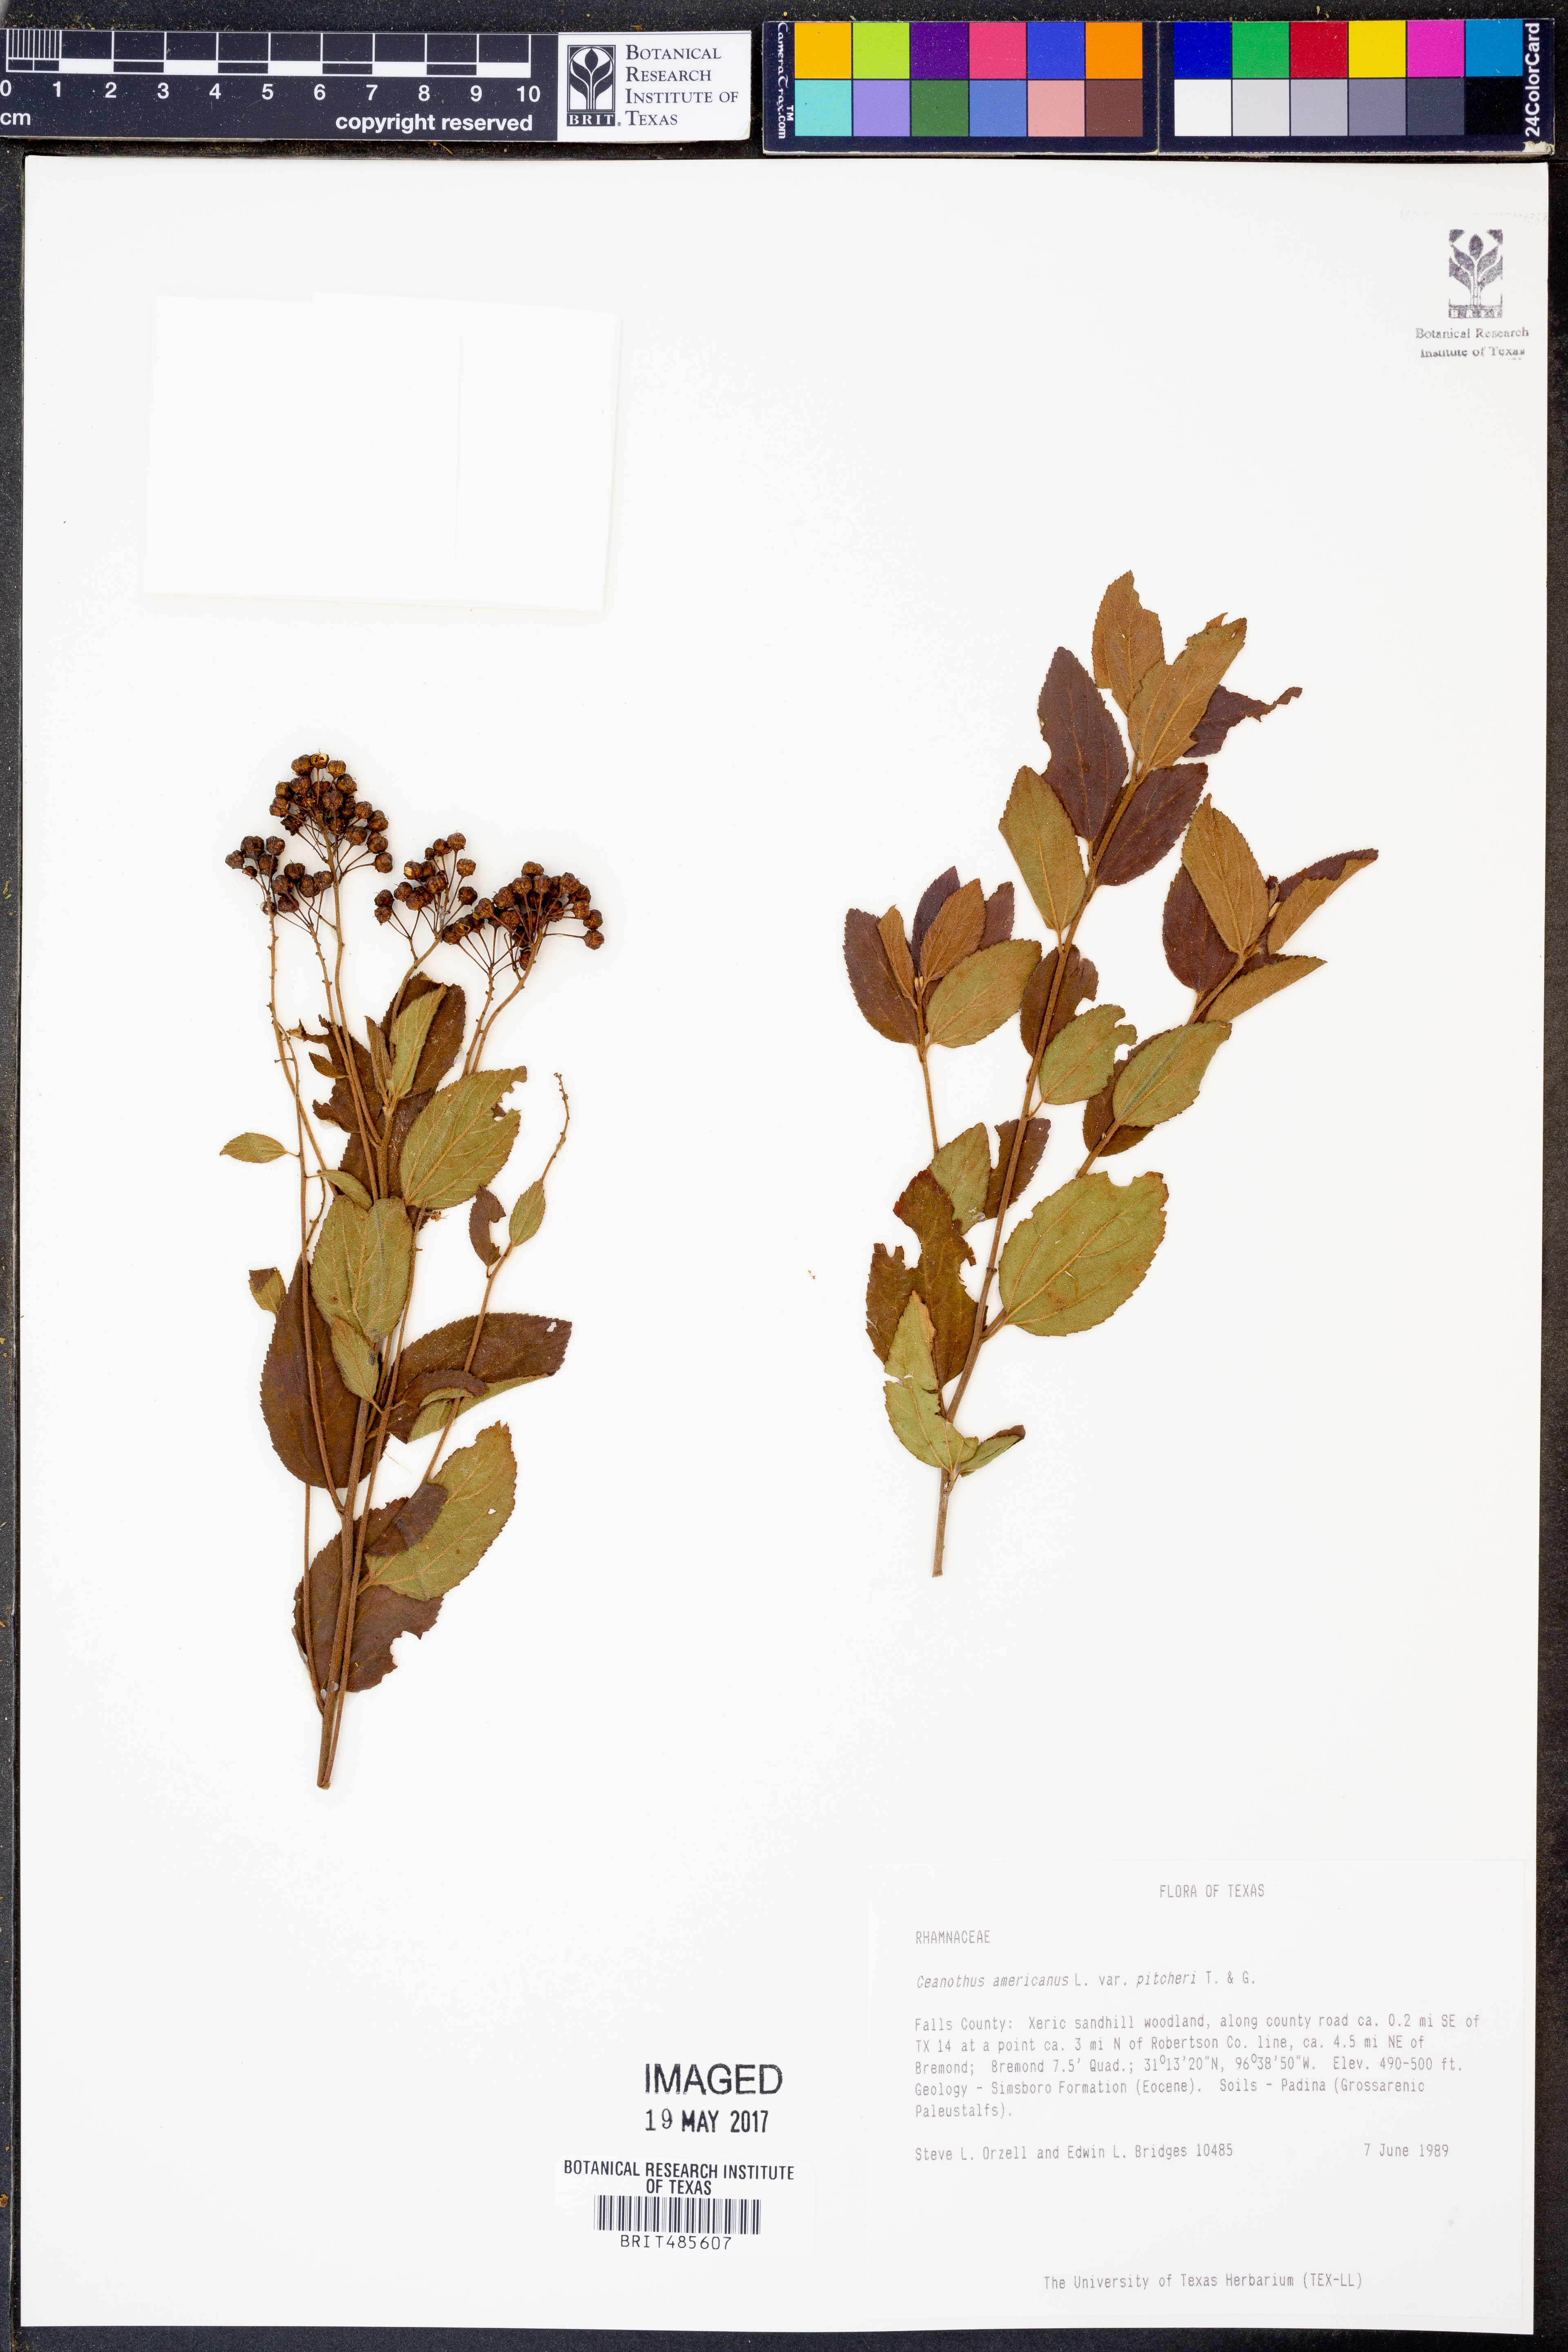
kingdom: Plantae
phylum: Tracheophyta
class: Magnoliopsida
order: Rosales
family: Rhamnaceae
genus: Ceanothus
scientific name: Ceanothus americanus
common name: Redroot
